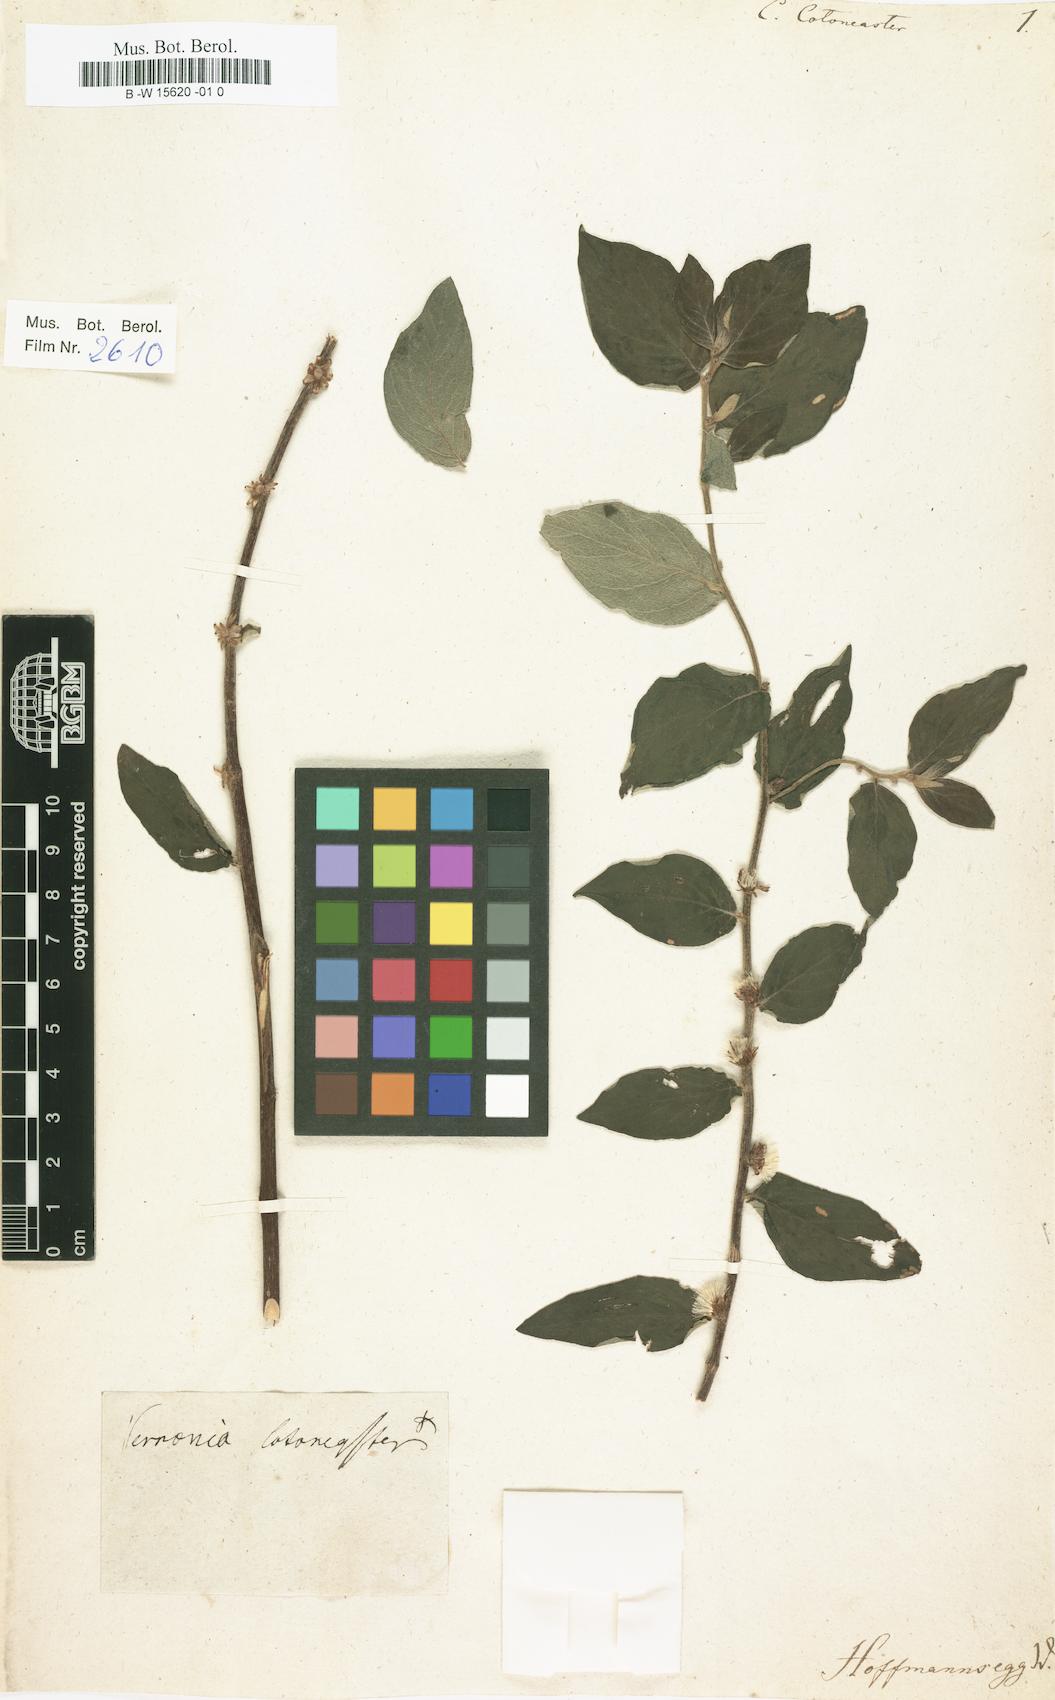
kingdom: Plantae
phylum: Tracheophyta
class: Magnoliopsida
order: Asterales
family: Asteraceae
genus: Lepidaploa
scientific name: Lepidaploa cotoneaster
